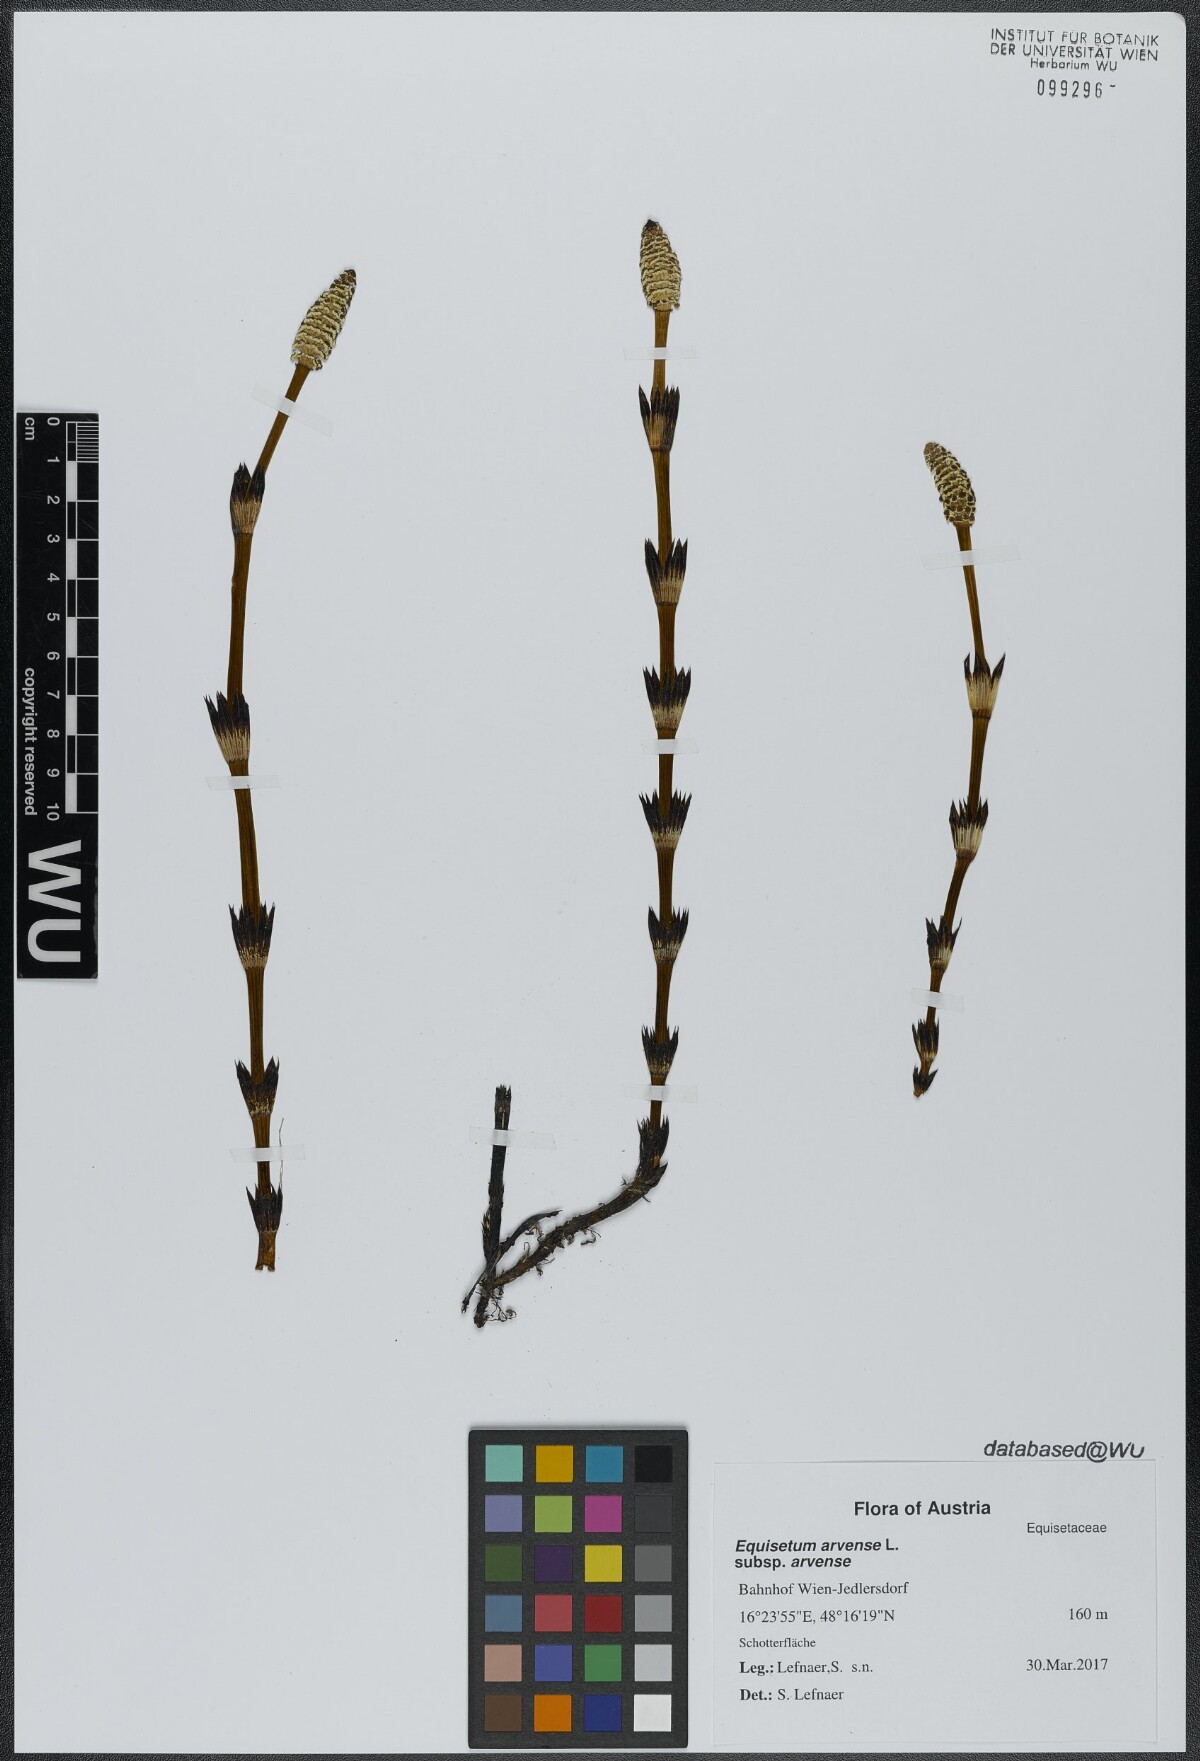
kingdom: Plantae
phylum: Tracheophyta
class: Polypodiopsida
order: Equisetales
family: Equisetaceae
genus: Equisetum
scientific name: Equisetum arvense
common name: Field horsetail
